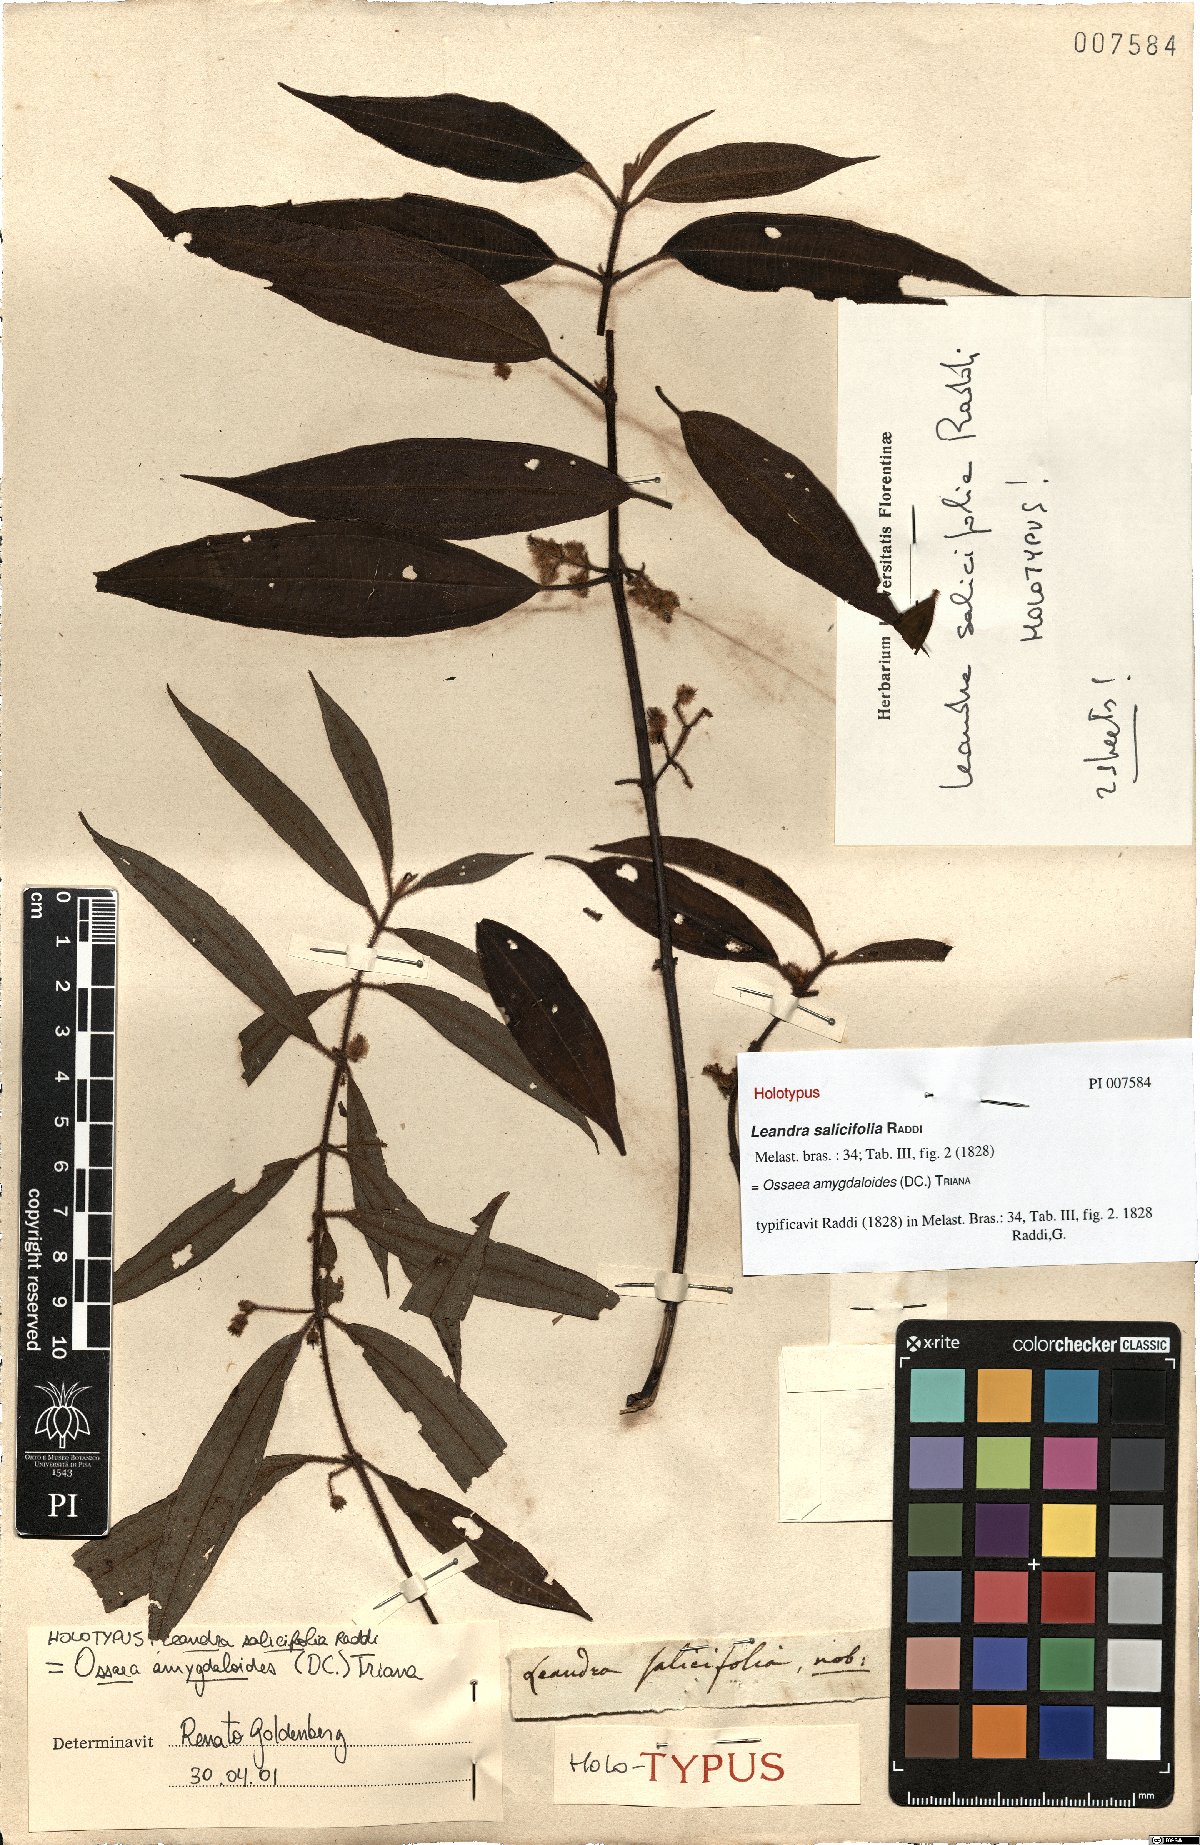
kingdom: Plantae
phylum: Tracheophyta
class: Magnoliopsida
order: Myrtales
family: Melastomataceae
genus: Miconia
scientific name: Miconia amygdaloides
